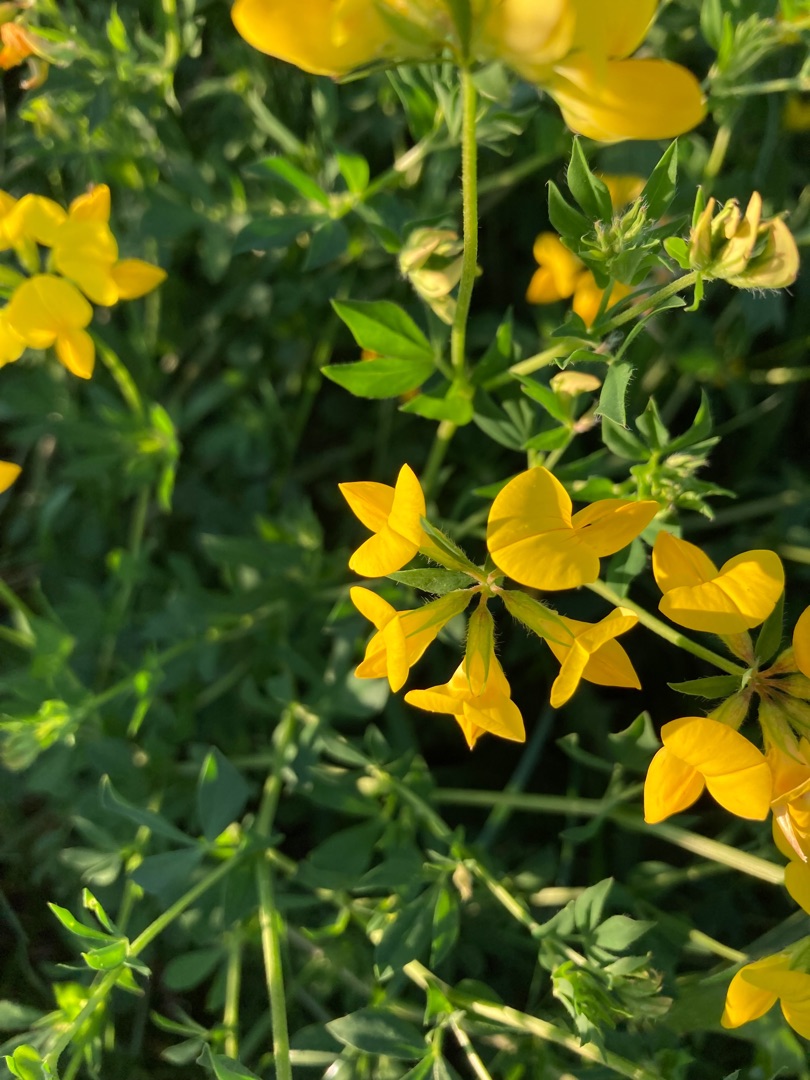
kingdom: Plantae
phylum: Tracheophyta
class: Magnoliopsida
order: Fabales
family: Fabaceae
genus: Lotus
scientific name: Lotus corniculatus
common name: Almindelig kællingetand
